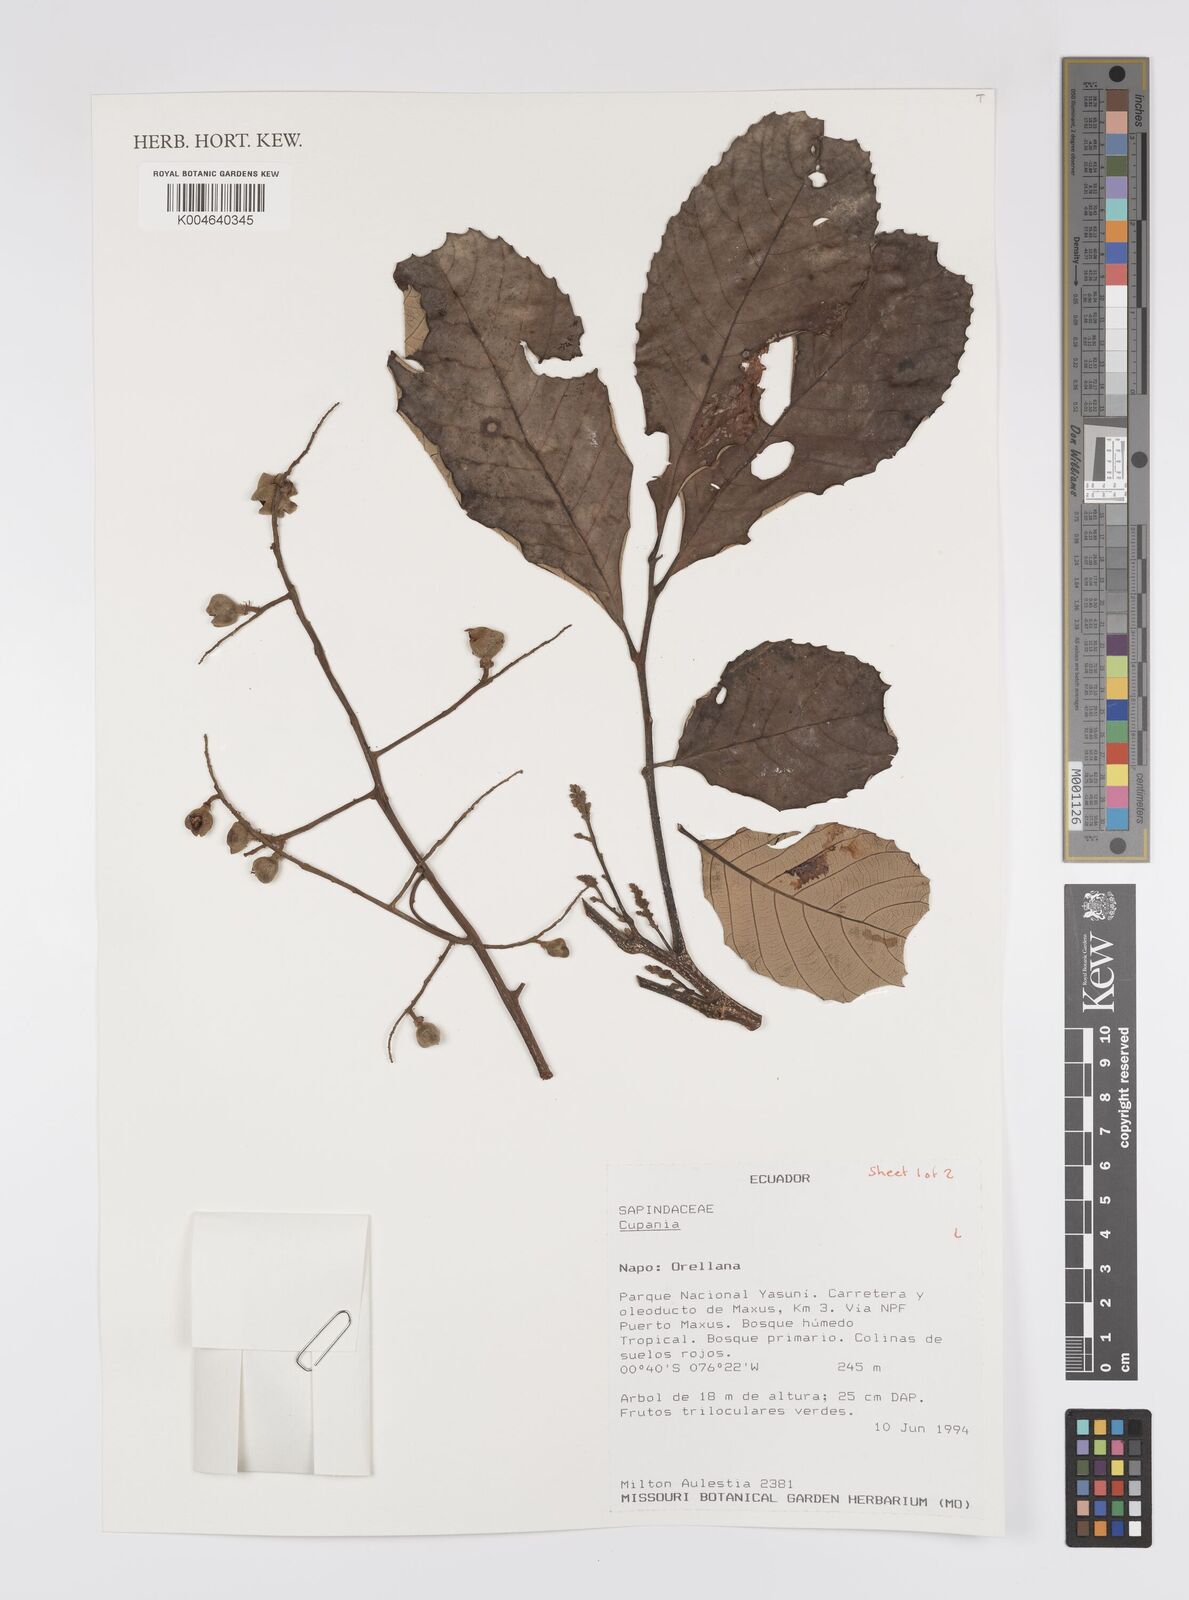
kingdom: Plantae
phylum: Tracheophyta
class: Magnoliopsida
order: Sapindales
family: Sapindaceae
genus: Cupania
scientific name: Cupania
